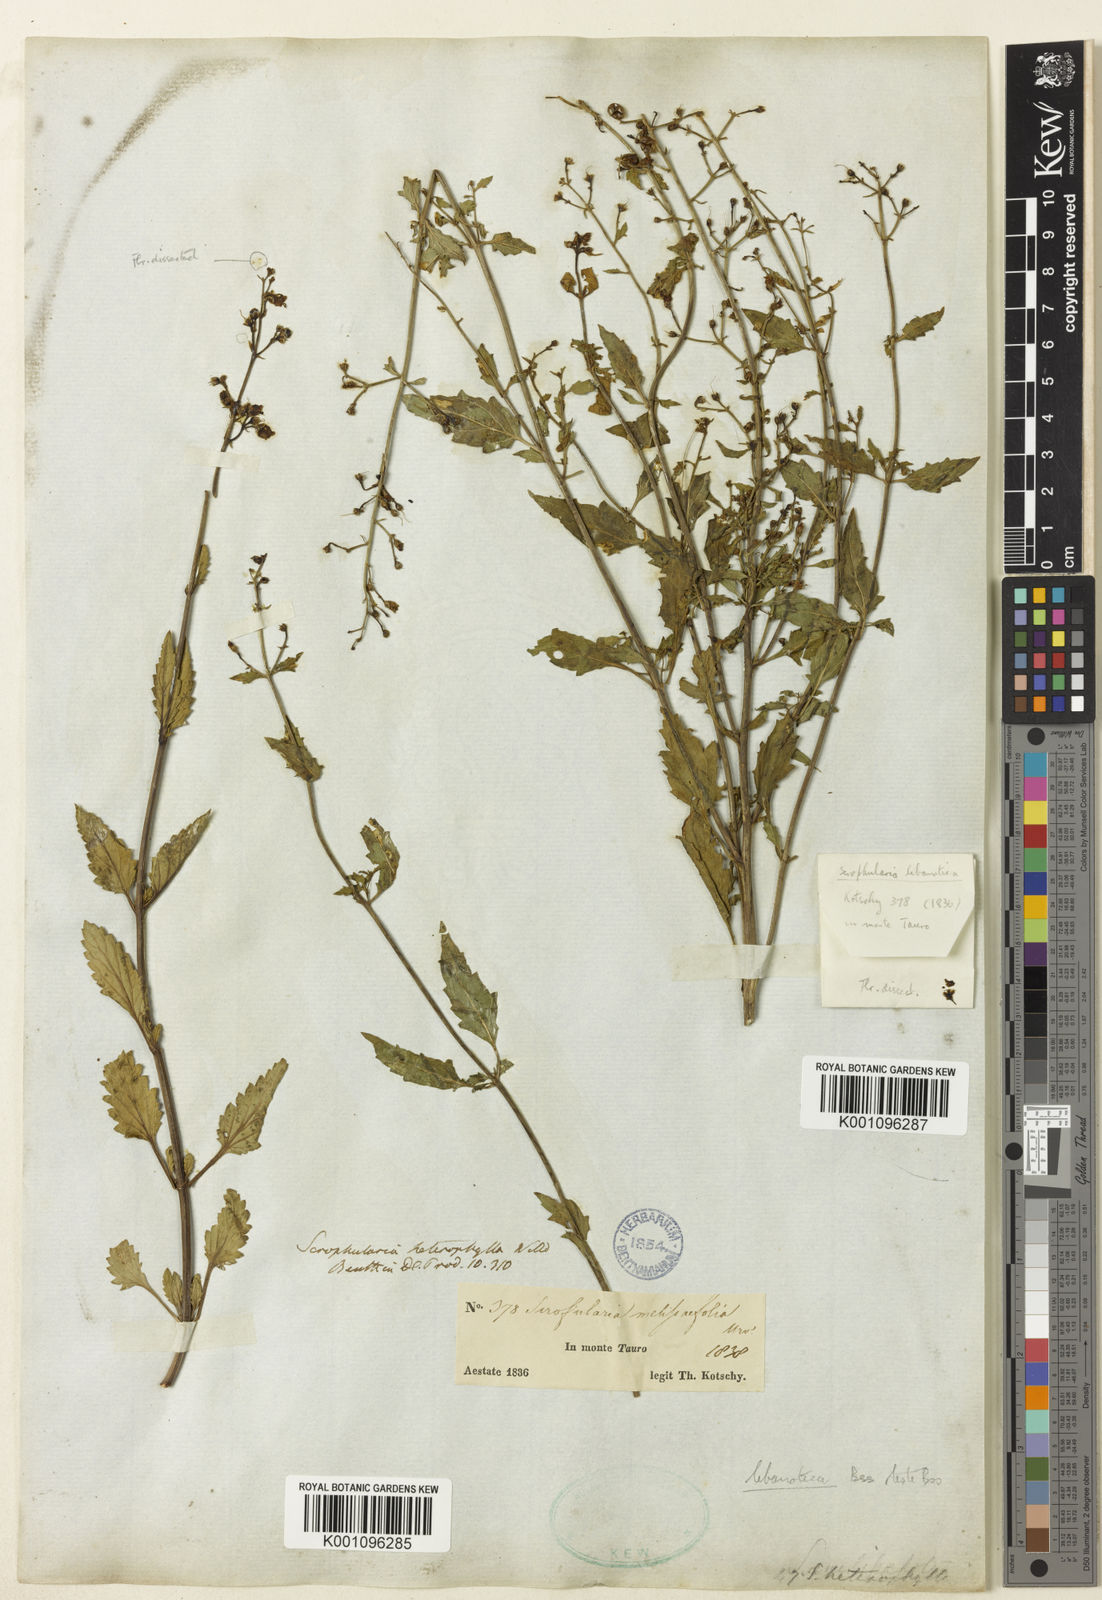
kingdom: Plantae
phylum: Tracheophyta
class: Magnoliopsida
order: Lamiales
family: Scrophulariaceae
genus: Scrophularia
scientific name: Scrophularia heterophylla
